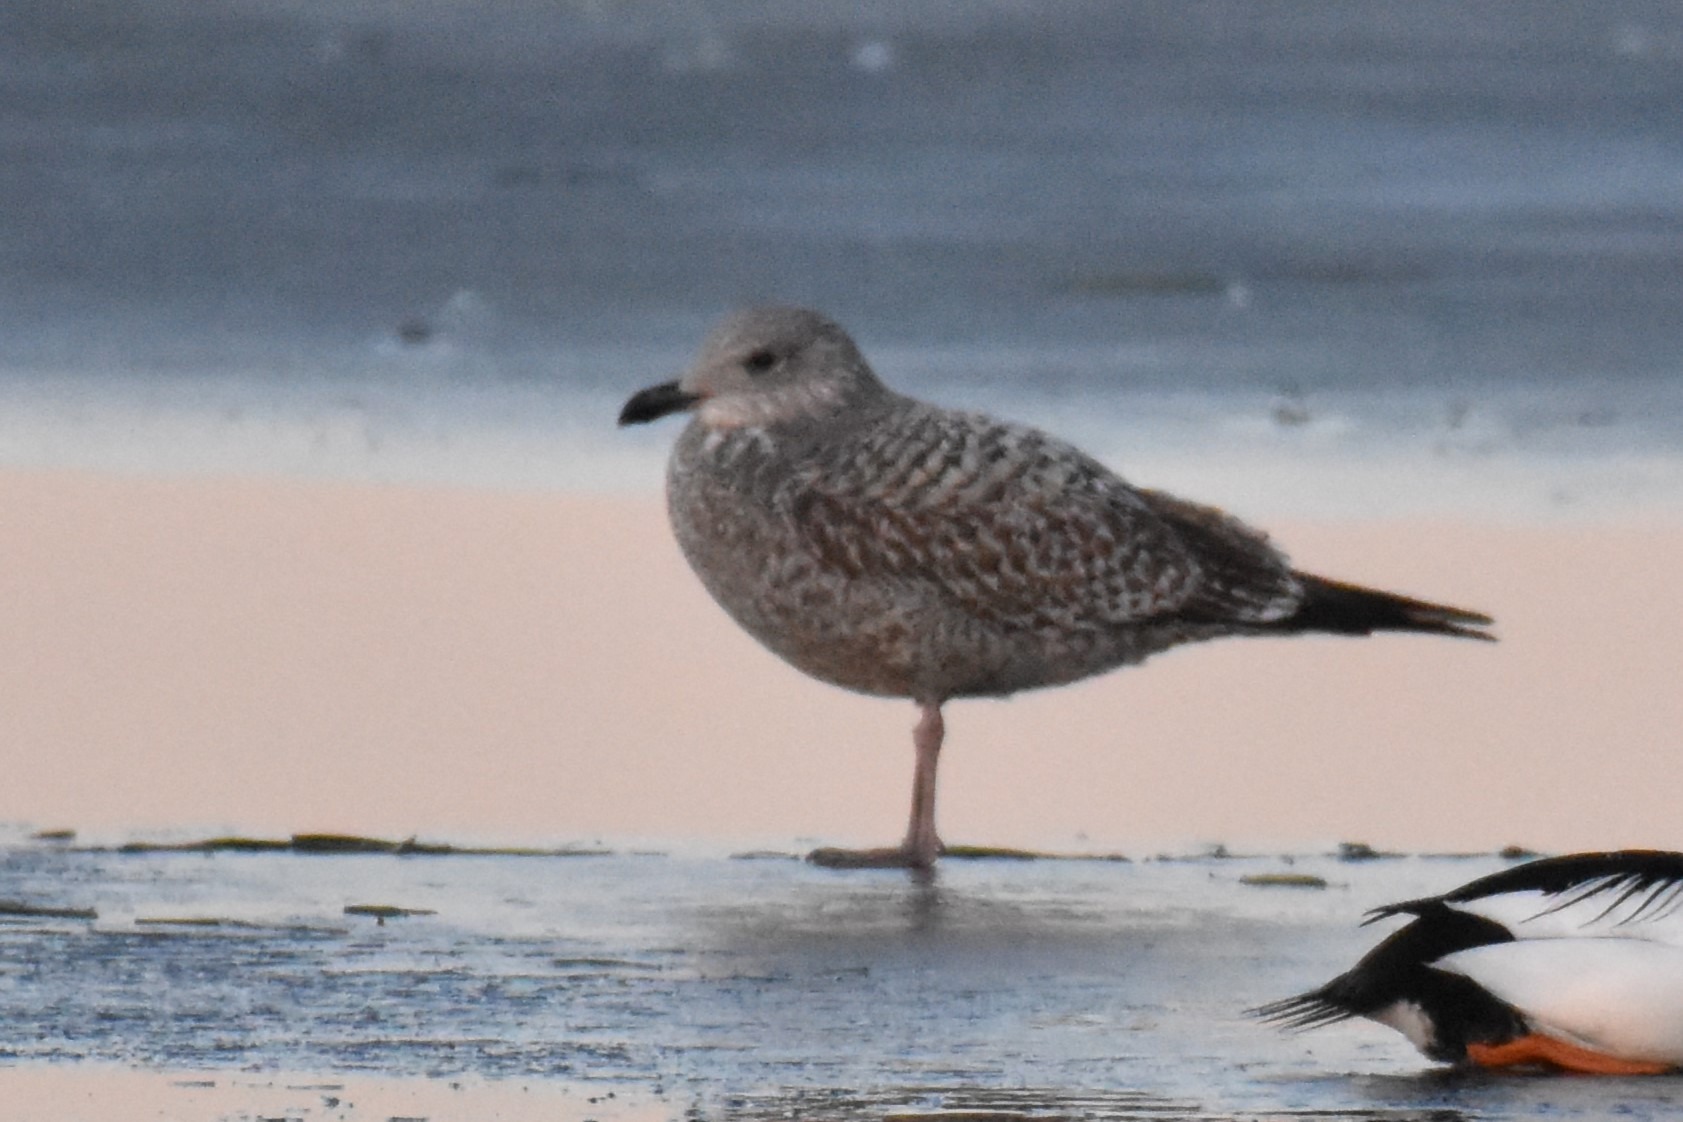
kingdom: Animalia
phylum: Chordata
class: Aves
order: Charadriiformes
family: Laridae
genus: Larus
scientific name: Larus argentatus
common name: Sølvmåge
